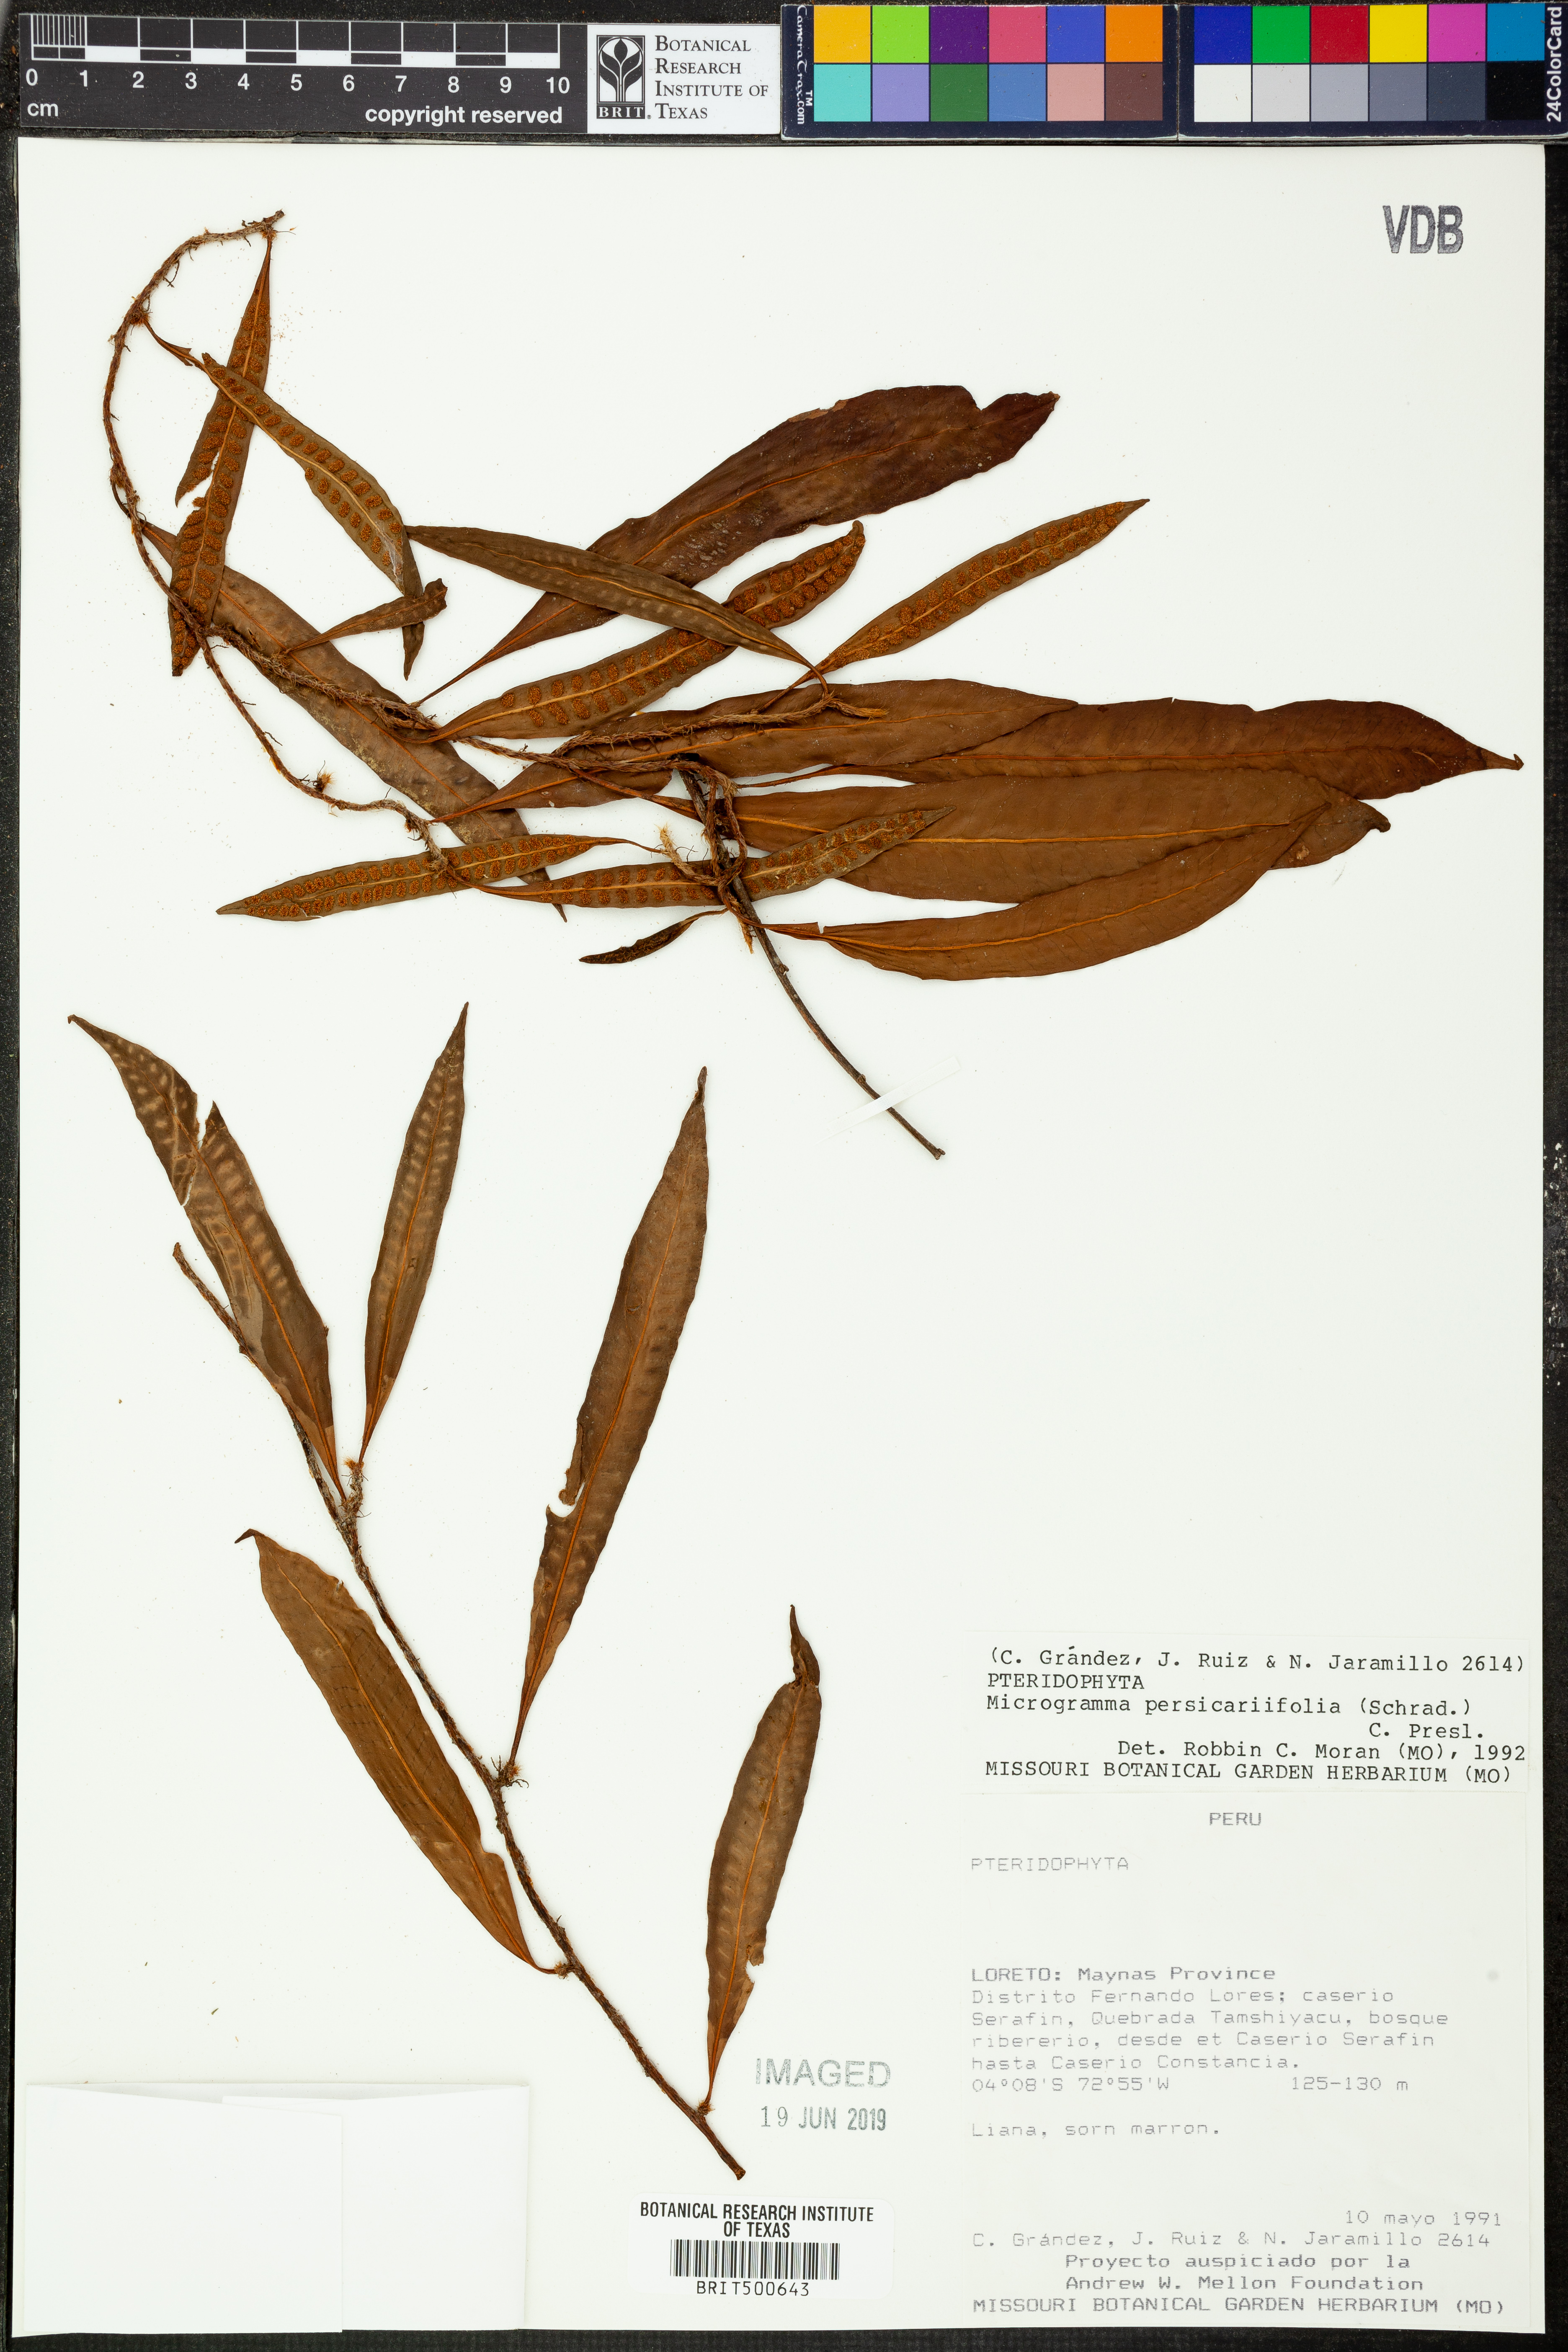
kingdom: Plantae
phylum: Tracheophyta
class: Polypodiopsida
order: Polypodiales
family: Polypodiaceae
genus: Microgramma
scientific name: Microgramma persicariifolia
